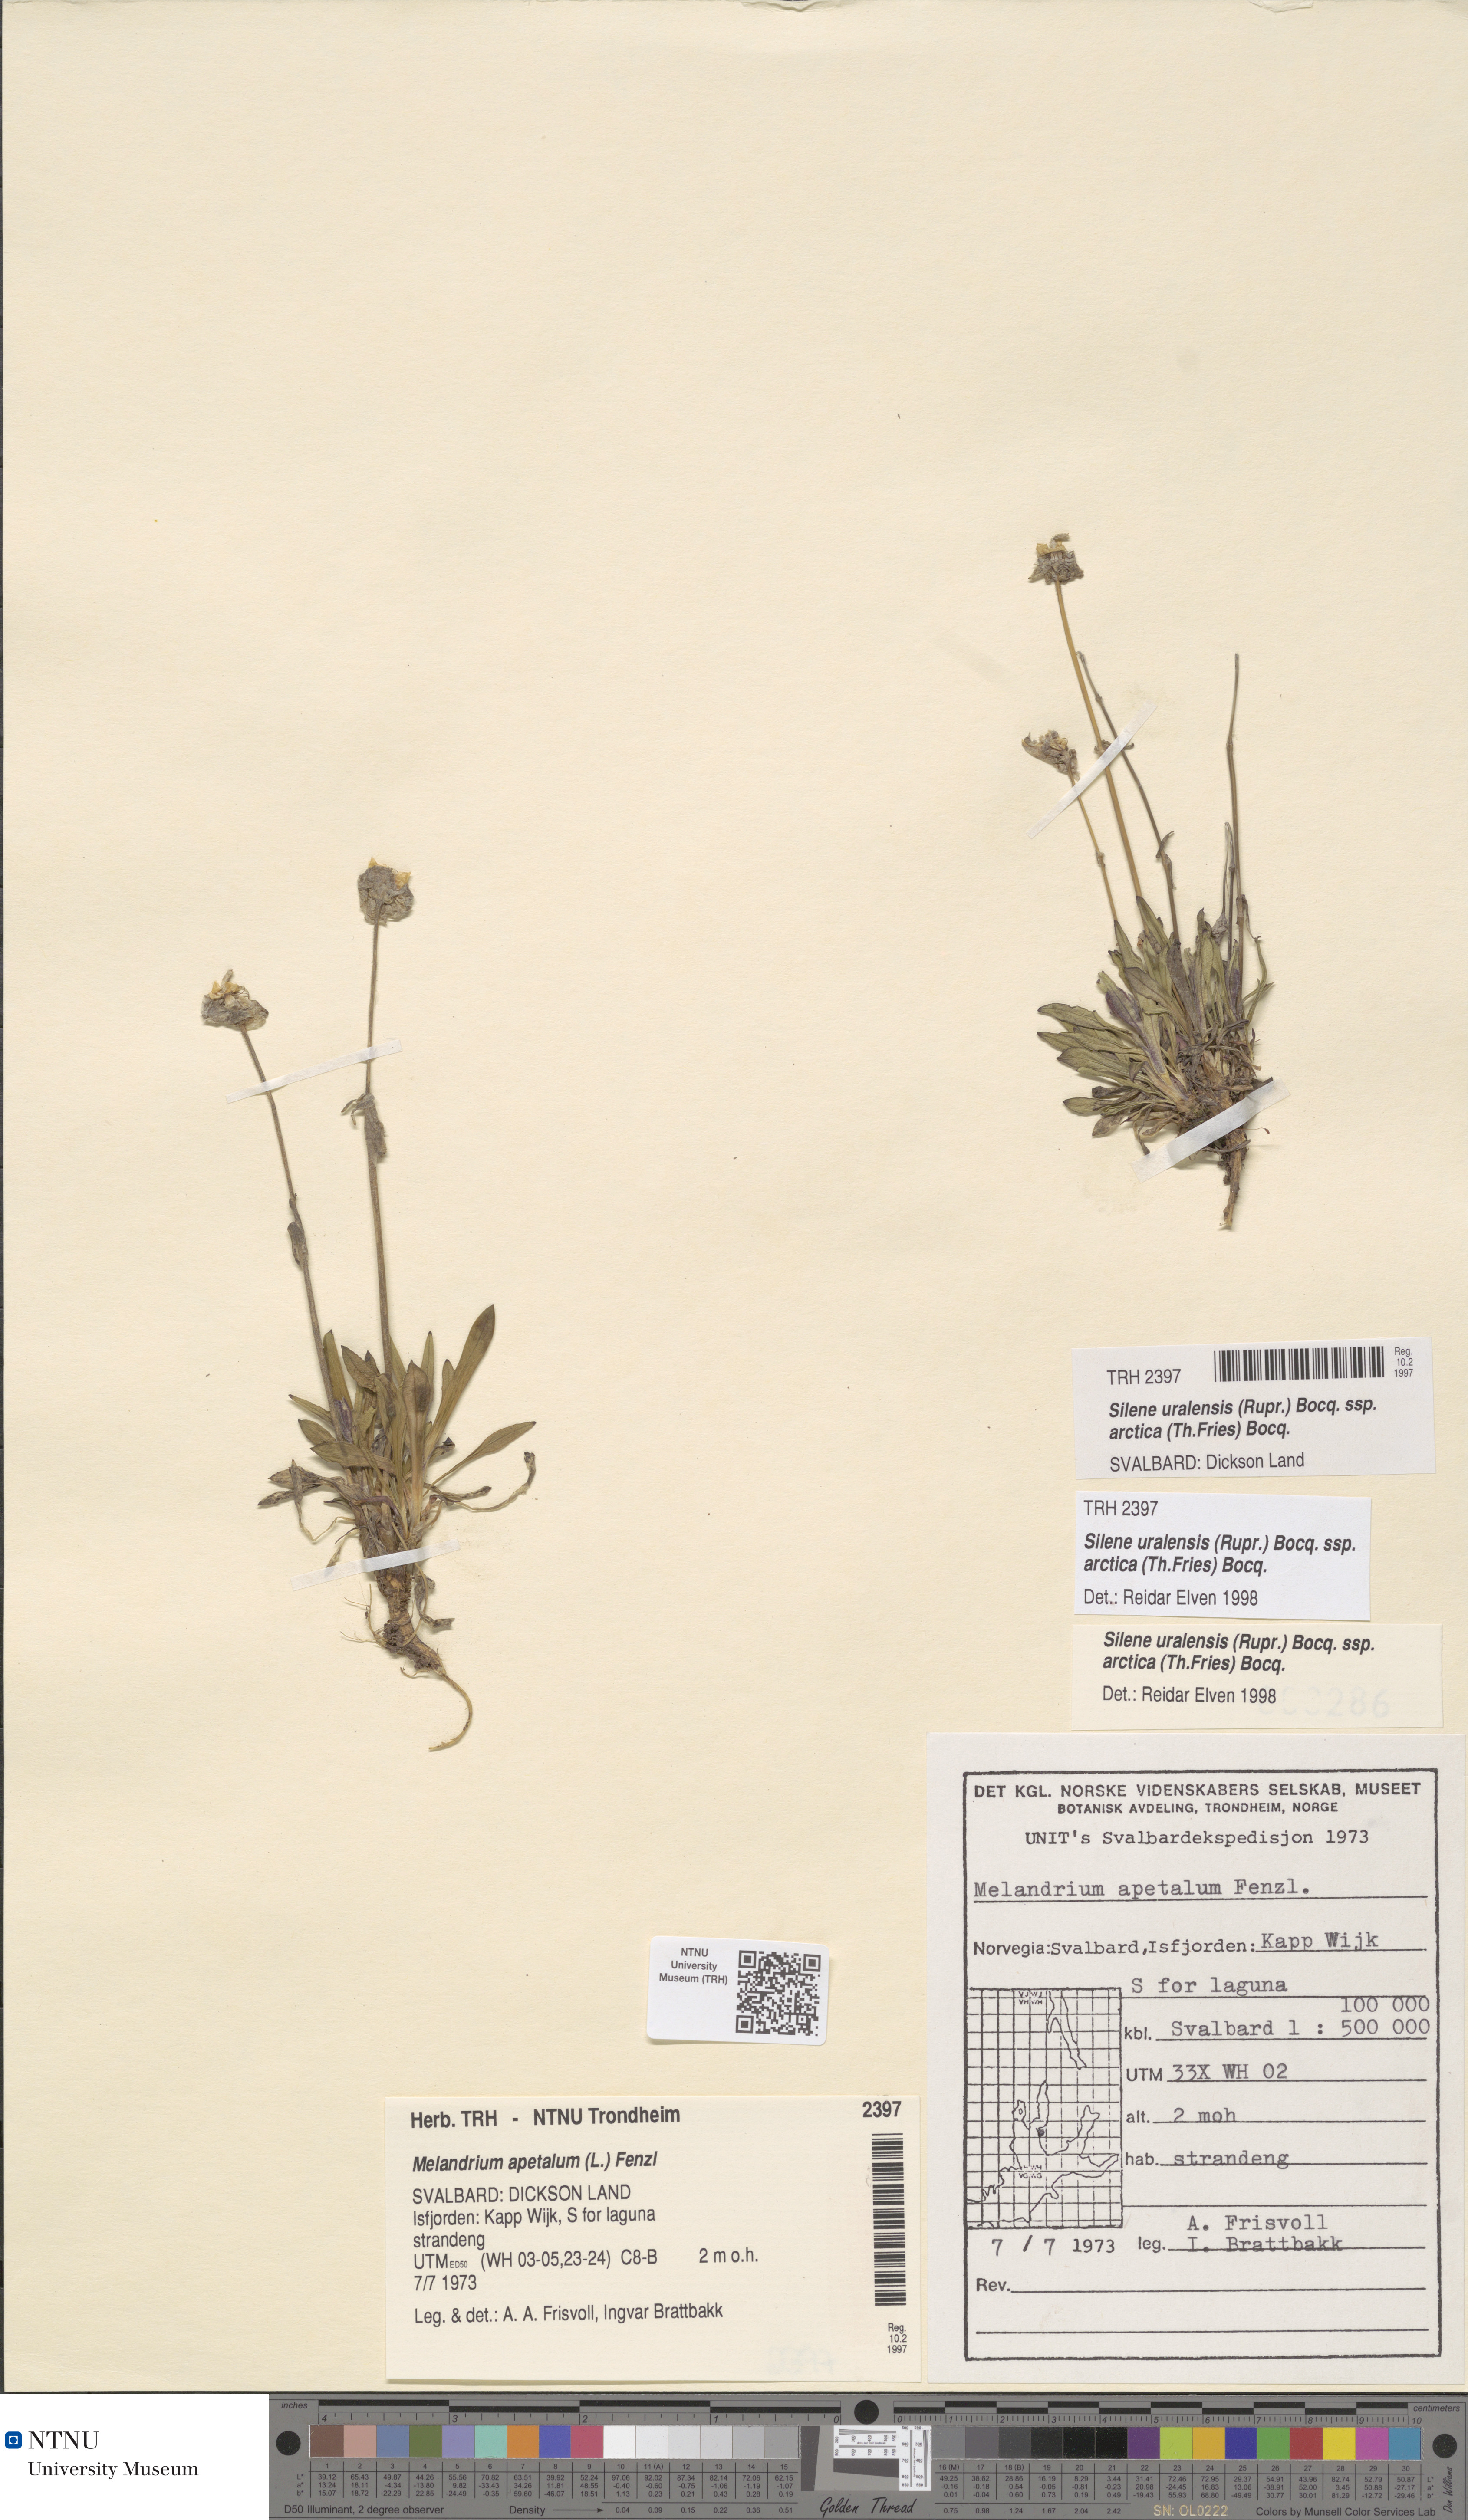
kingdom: Plantae
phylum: Tracheophyta
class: Magnoliopsida
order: Caryophyllales
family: Caryophyllaceae
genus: Silene
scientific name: Silene uralensis
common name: Nodding campion
